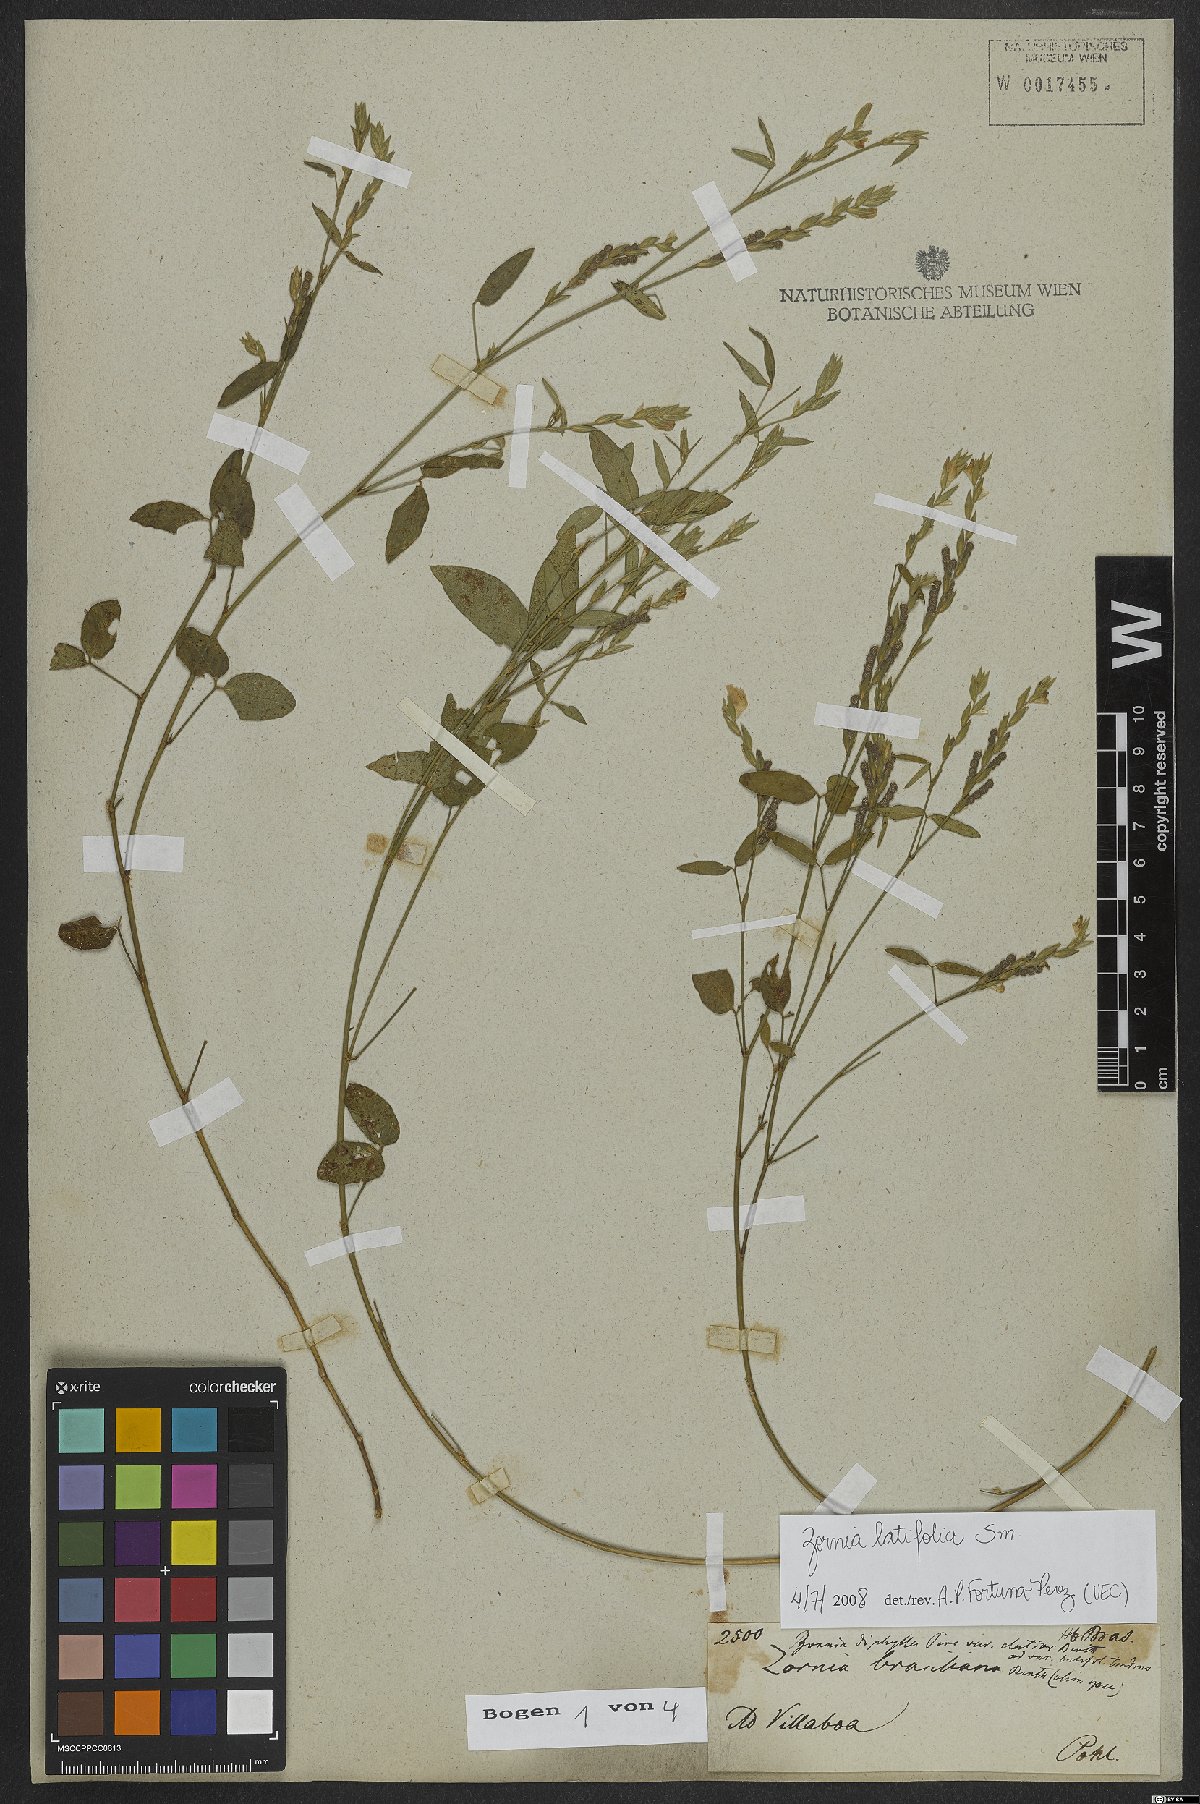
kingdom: Plantae
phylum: Tracheophyta
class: Magnoliopsida
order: Fabales
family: Fabaceae
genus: Zornia
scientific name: Zornia sericea
